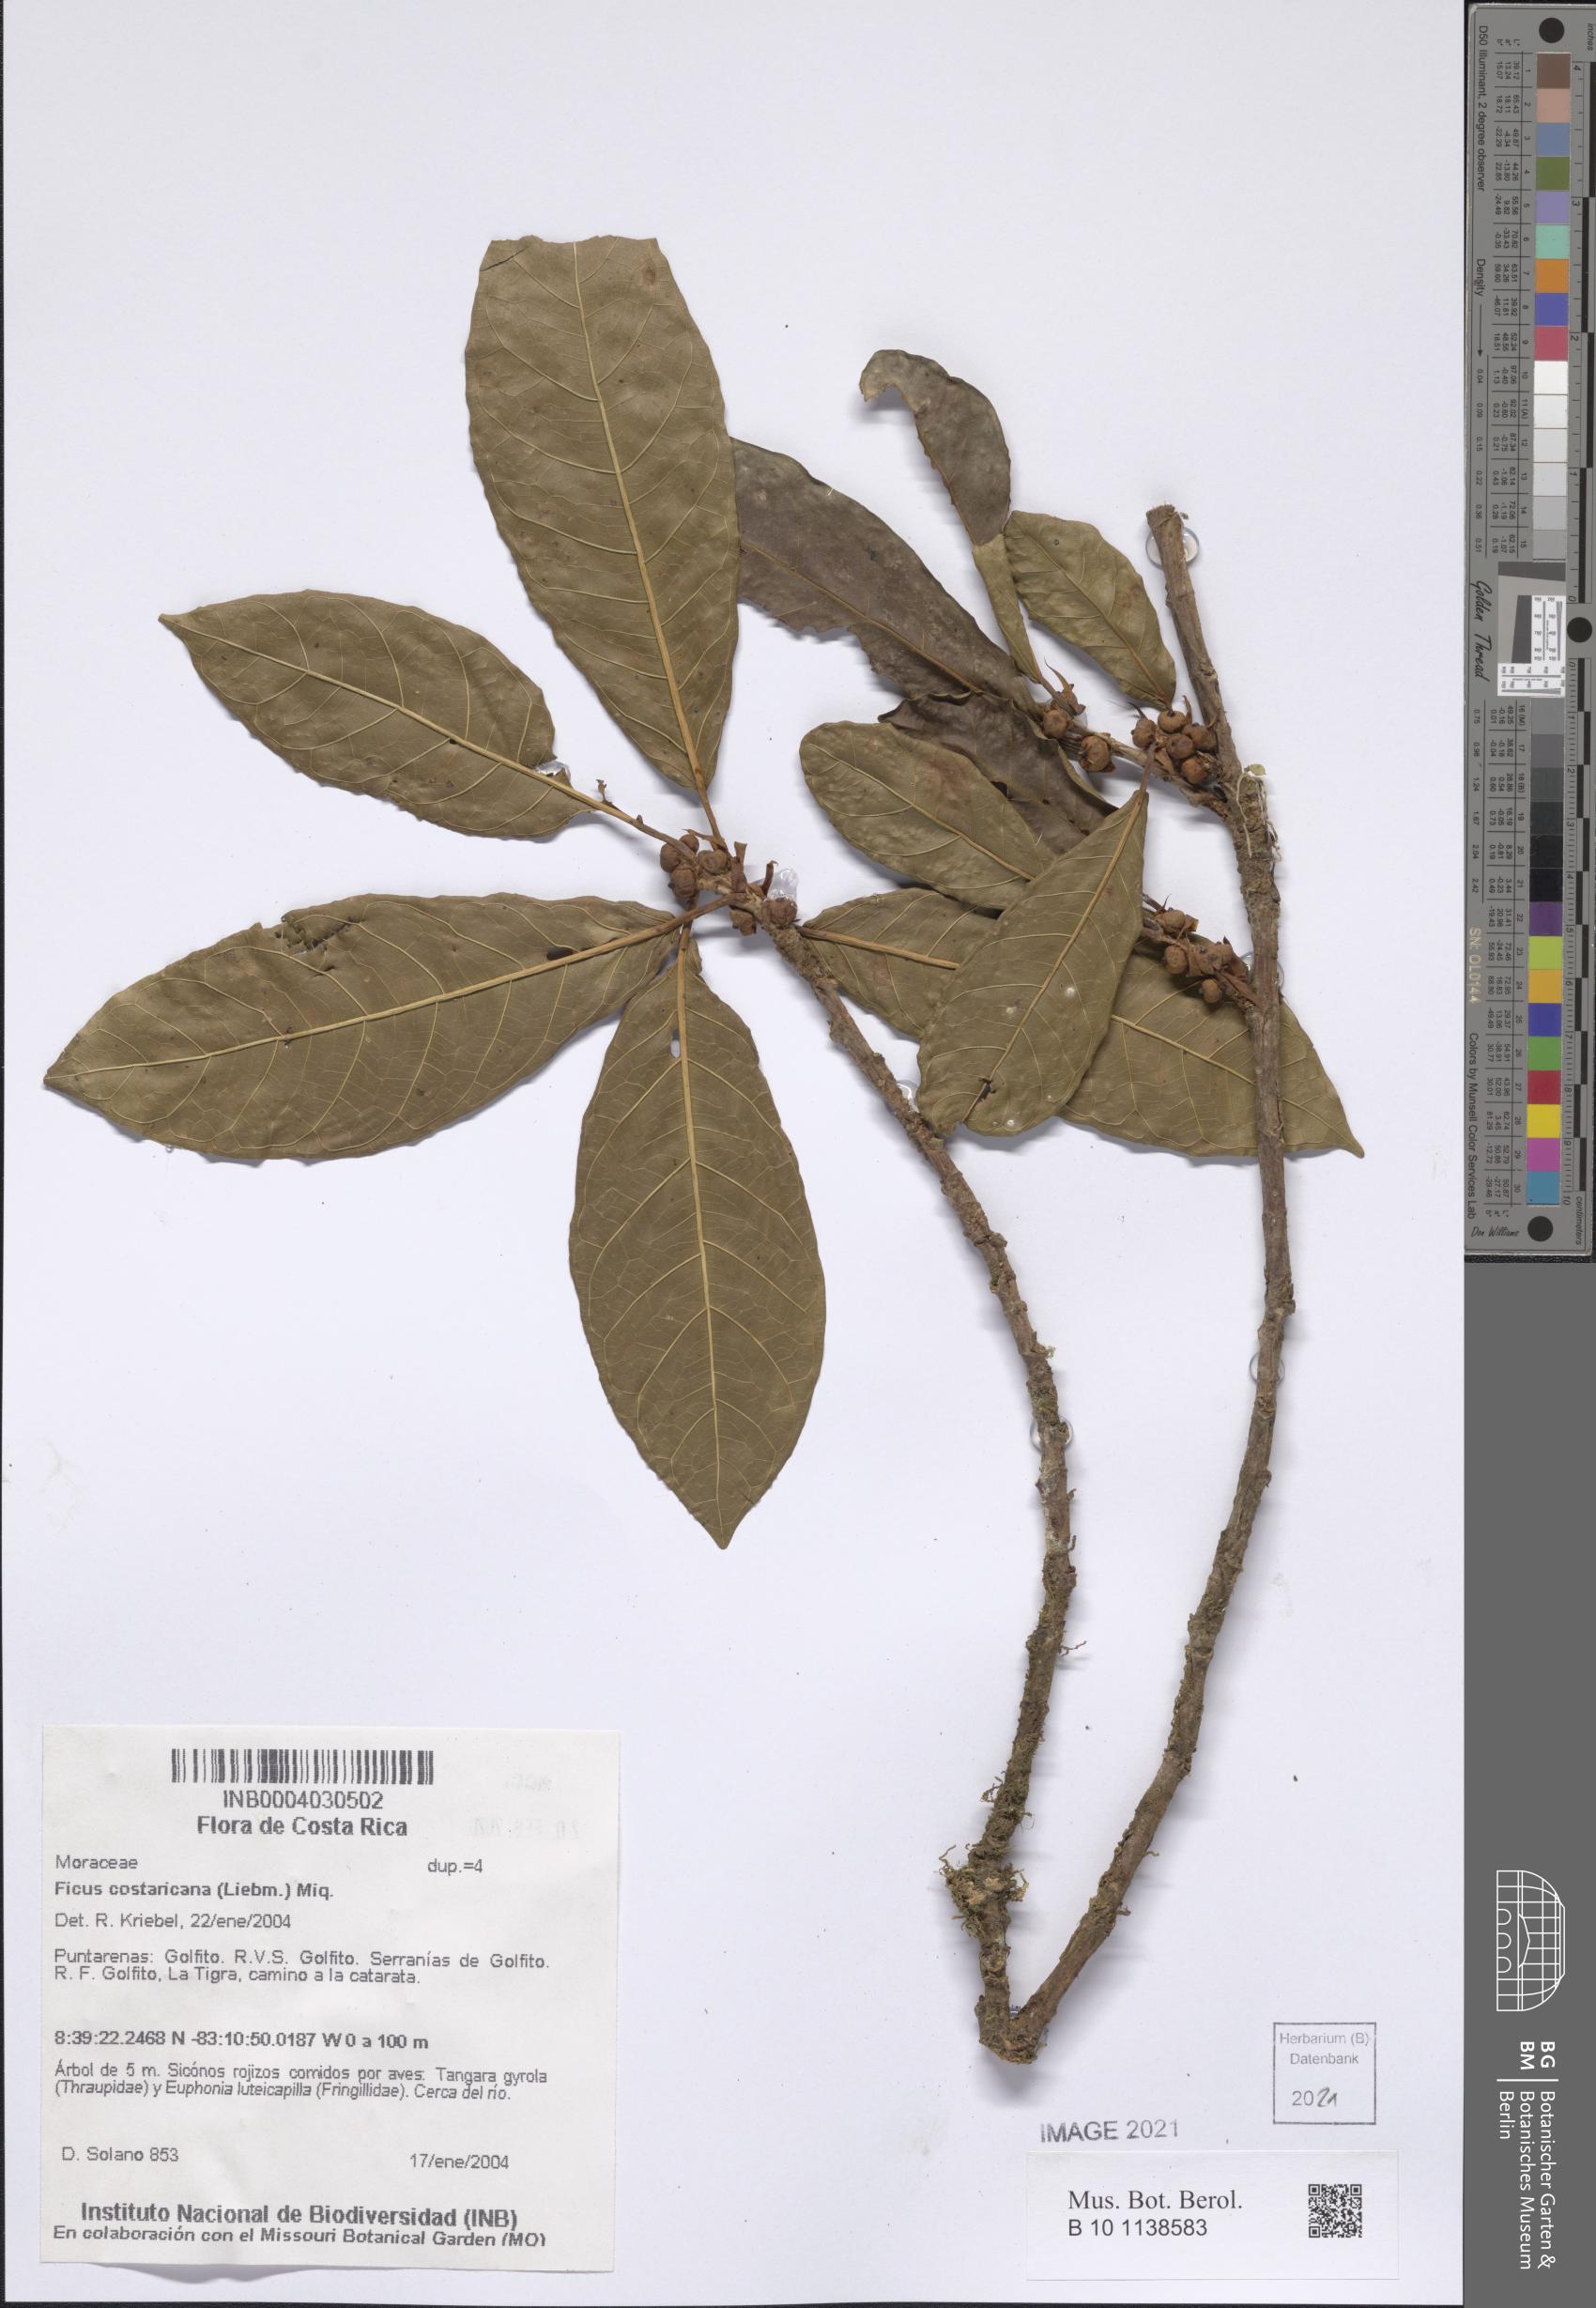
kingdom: Plantae
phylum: Tracheophyta
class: Magnoliopsida
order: Rosales
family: Moraceae
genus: Ficus
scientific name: Ficus costaricana
